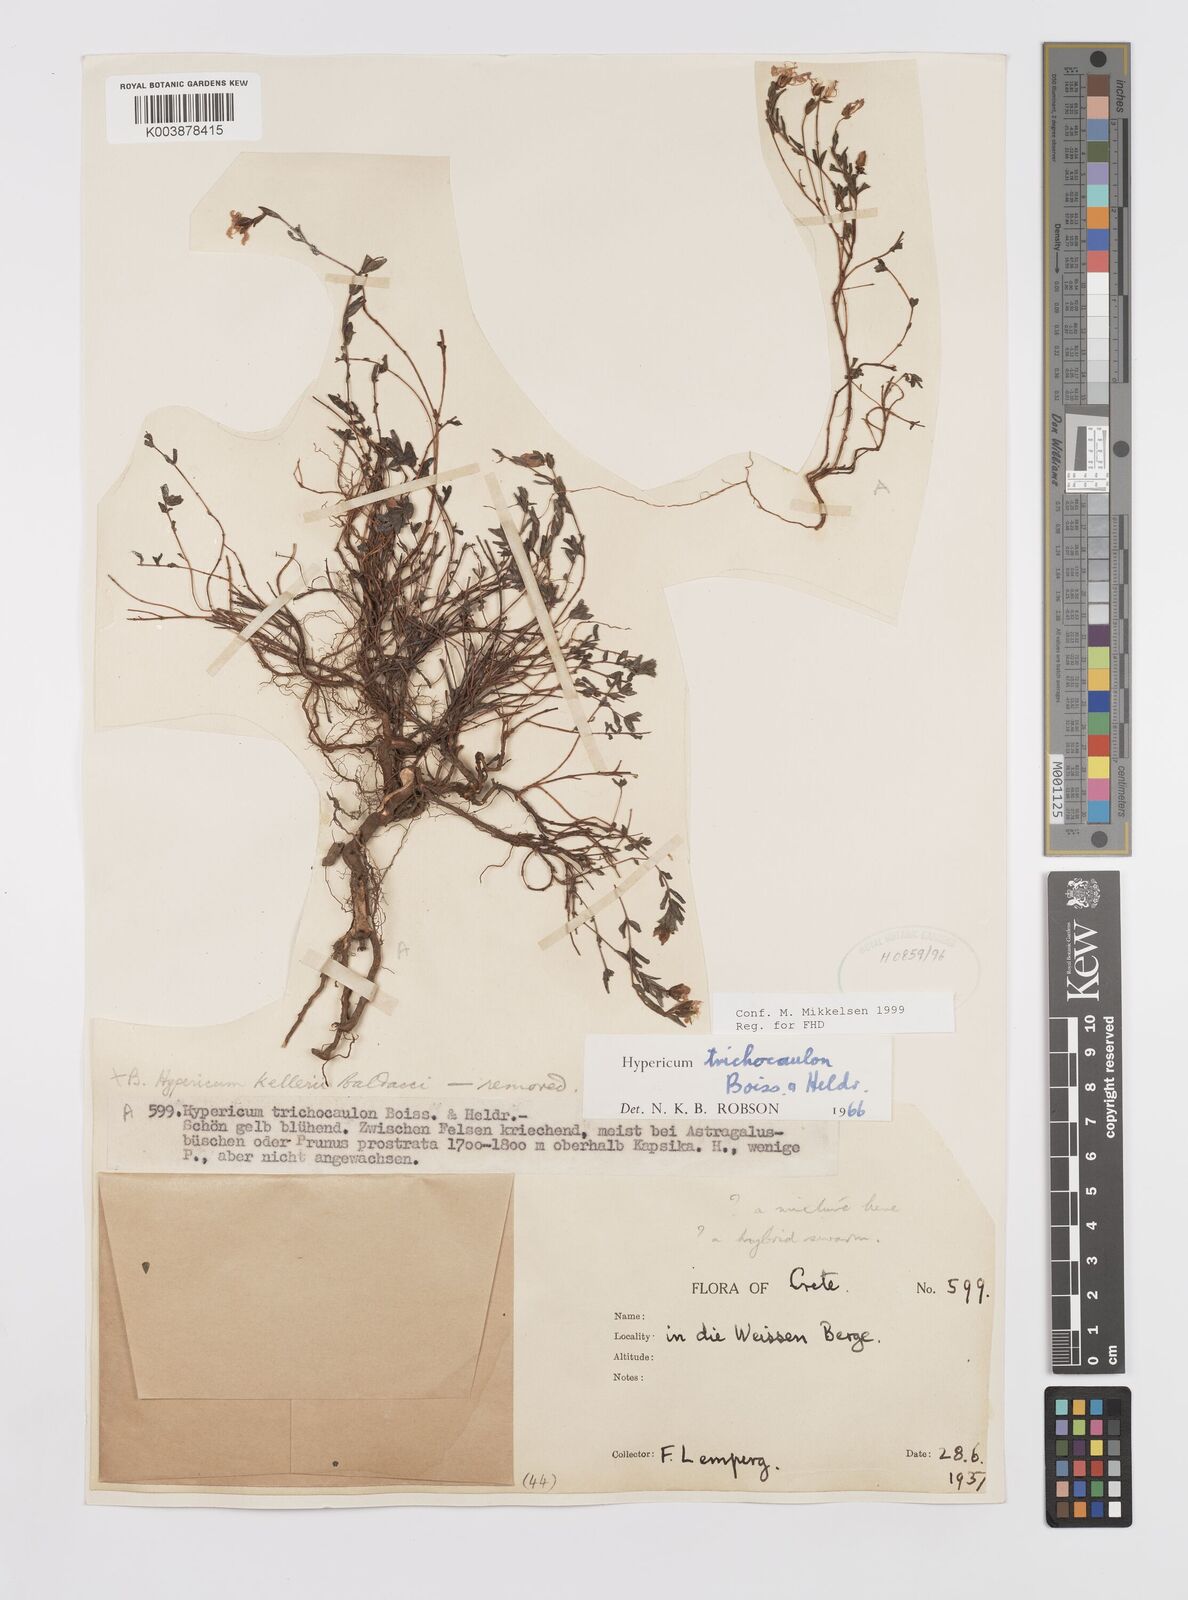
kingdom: Plantae
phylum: Tracheophyta
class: Magnoliopsida
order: Malpighiales
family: Hypericaceae
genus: Hypericum
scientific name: Hypericum trichocaulon
